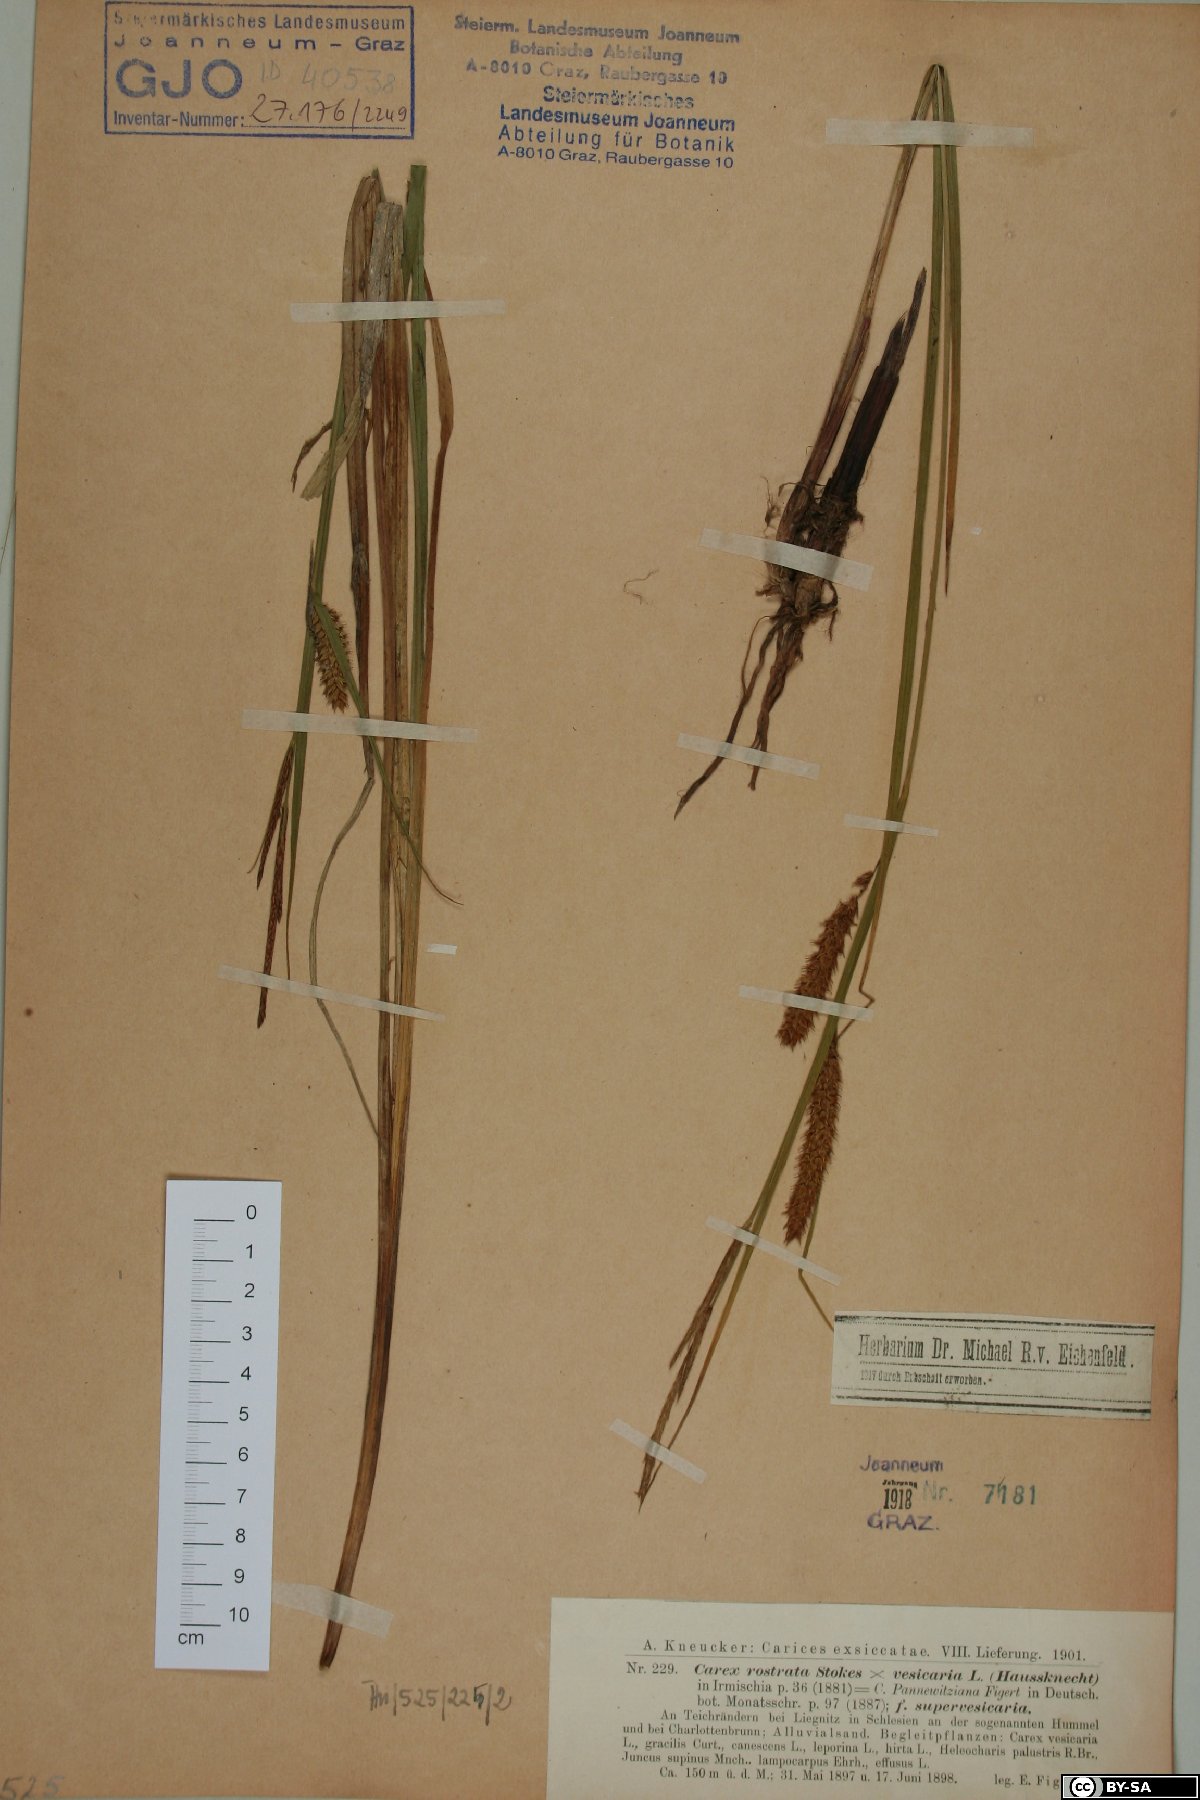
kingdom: Plantae
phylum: Tracheophyta
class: Liliopsida
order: Poales
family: Cyperaceae
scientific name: Cyperaceae
